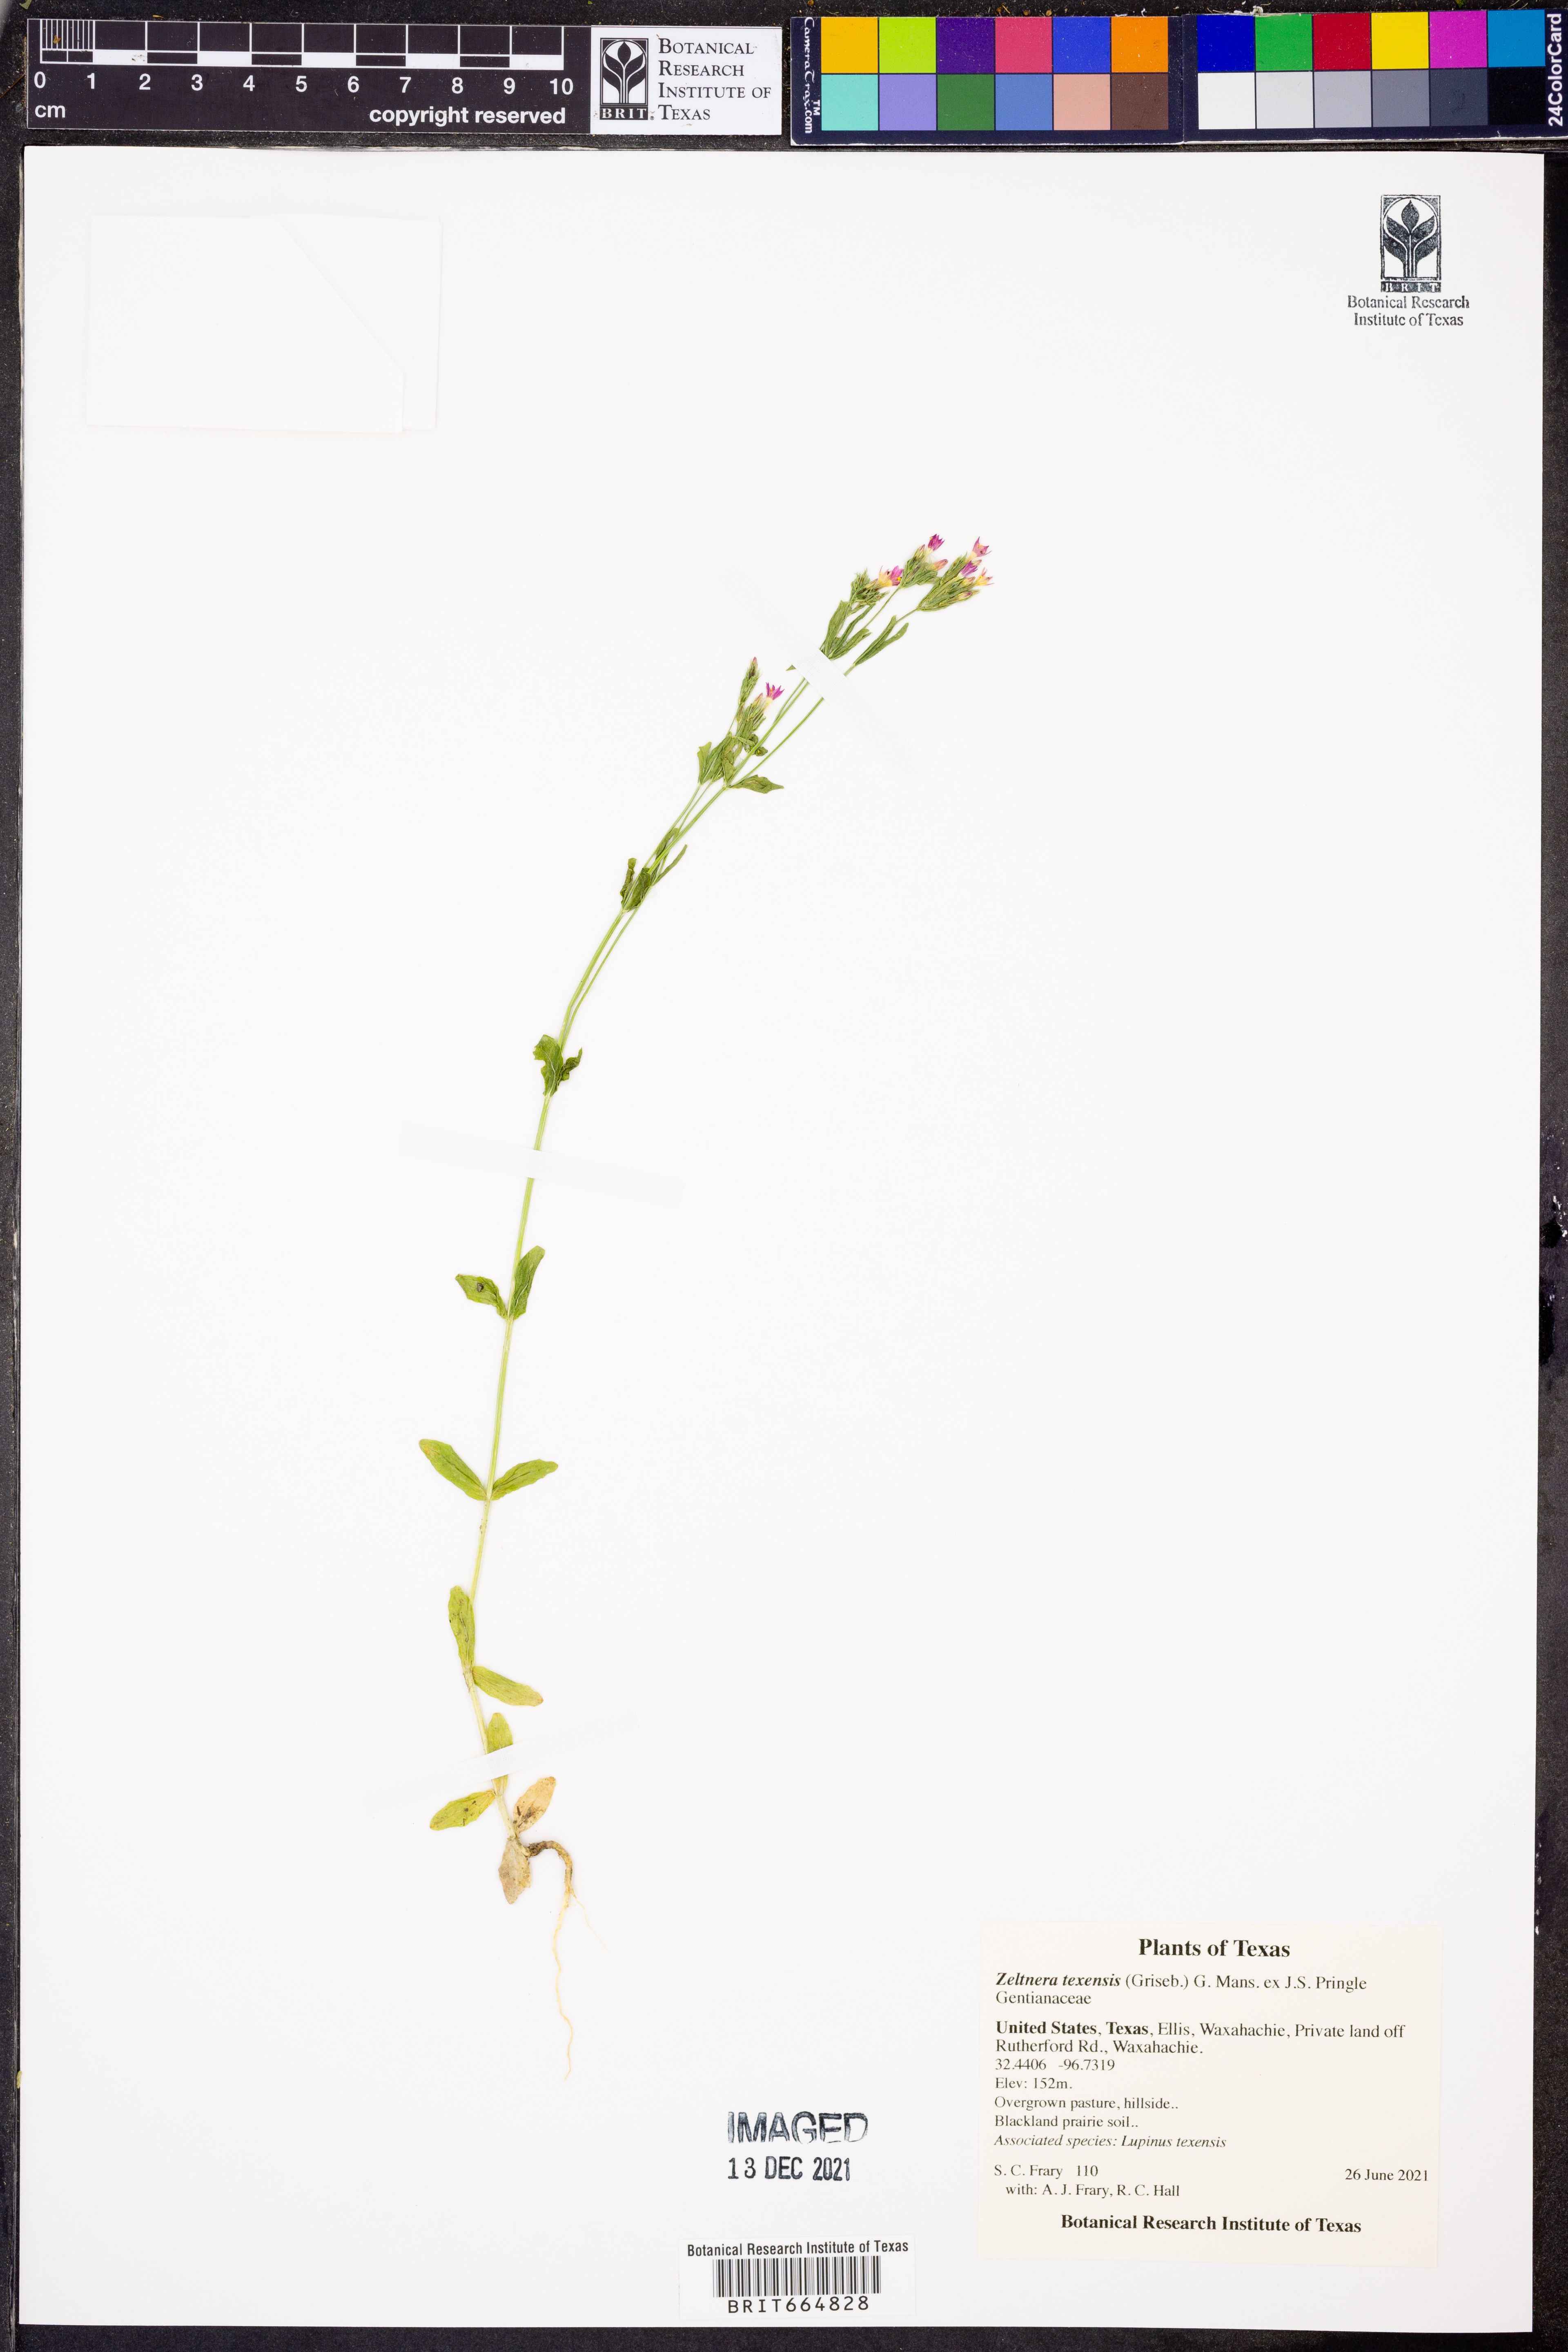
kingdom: Plantae
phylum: Tracheophyta
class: Magnoliopsida
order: Gentianales
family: Gentianaceae
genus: Zeltnera
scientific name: Zeltnera texensis
